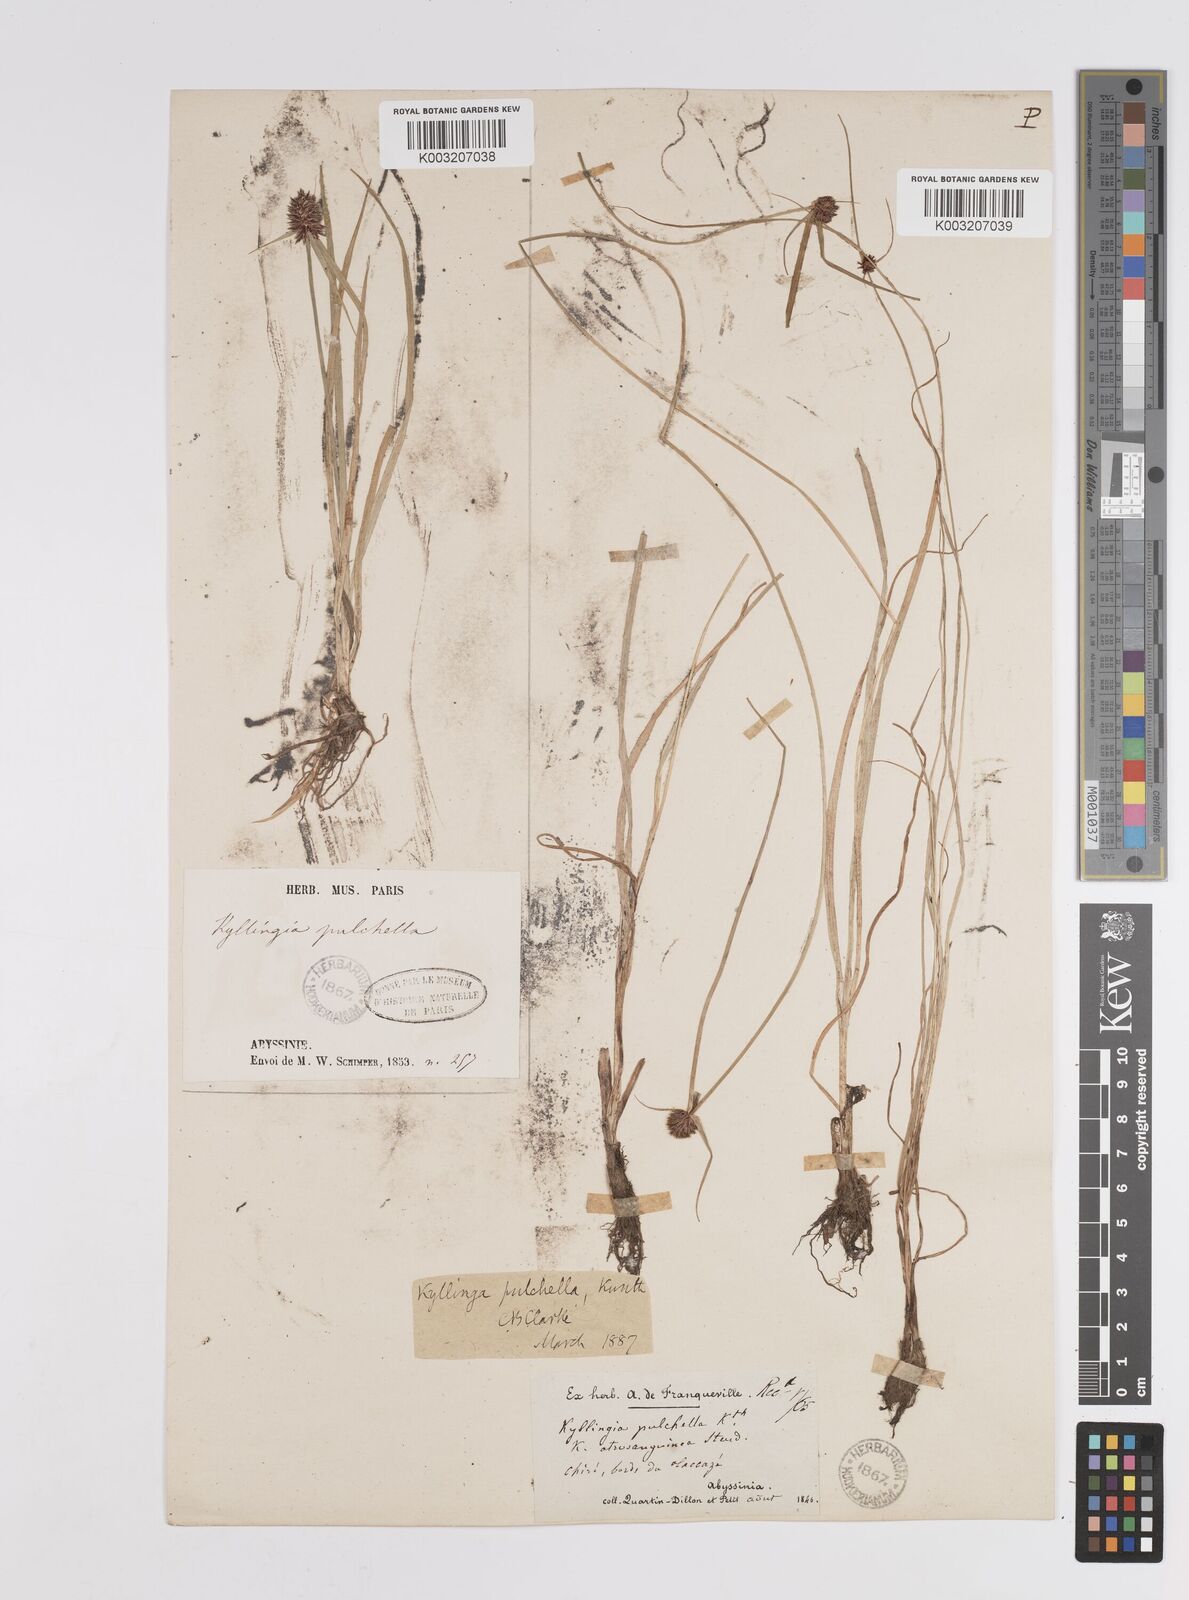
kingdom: Plantae
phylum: Tracheophyta
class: Liliopsida
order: Poales
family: Cyperaceae
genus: Cyperus
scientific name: Cyperus
